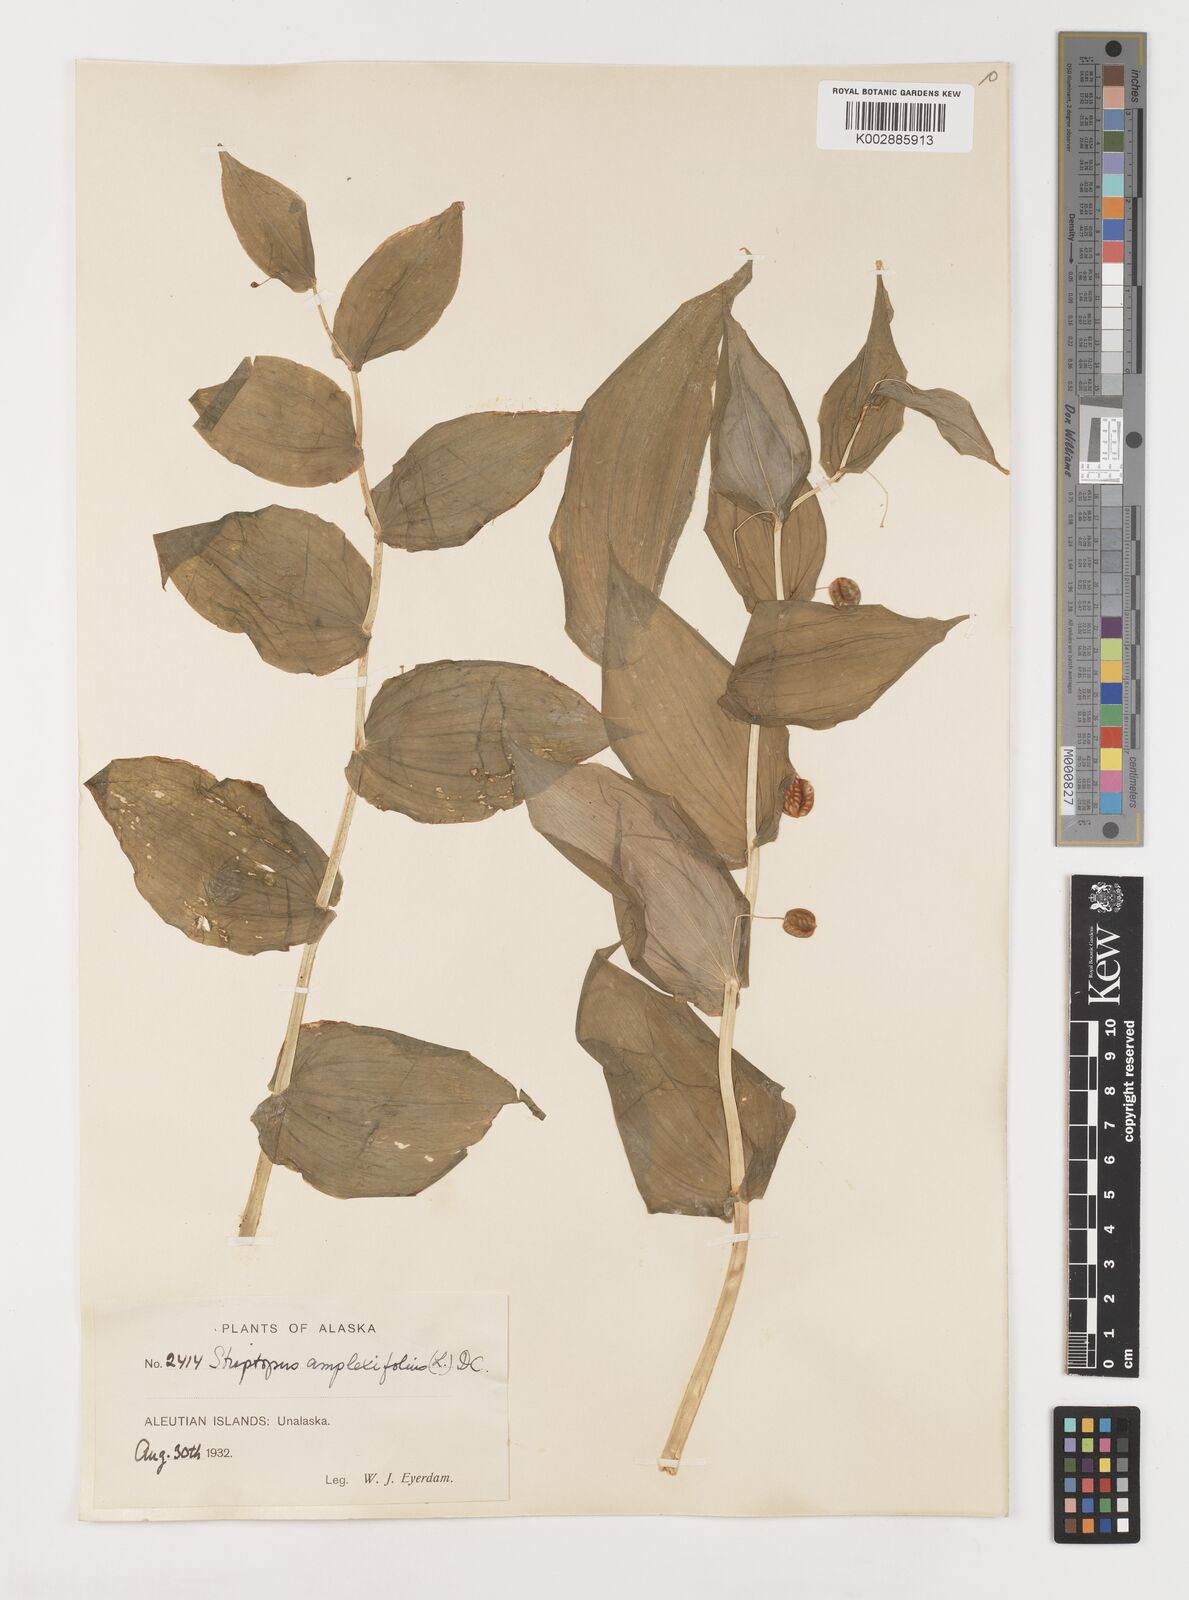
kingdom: Plantae
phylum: Tracheophyta
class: Liliopsida
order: Liliales
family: Liliaceae
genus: Streptopus
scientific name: Streptopus amplexifolius
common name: Clasp twisted stalk
